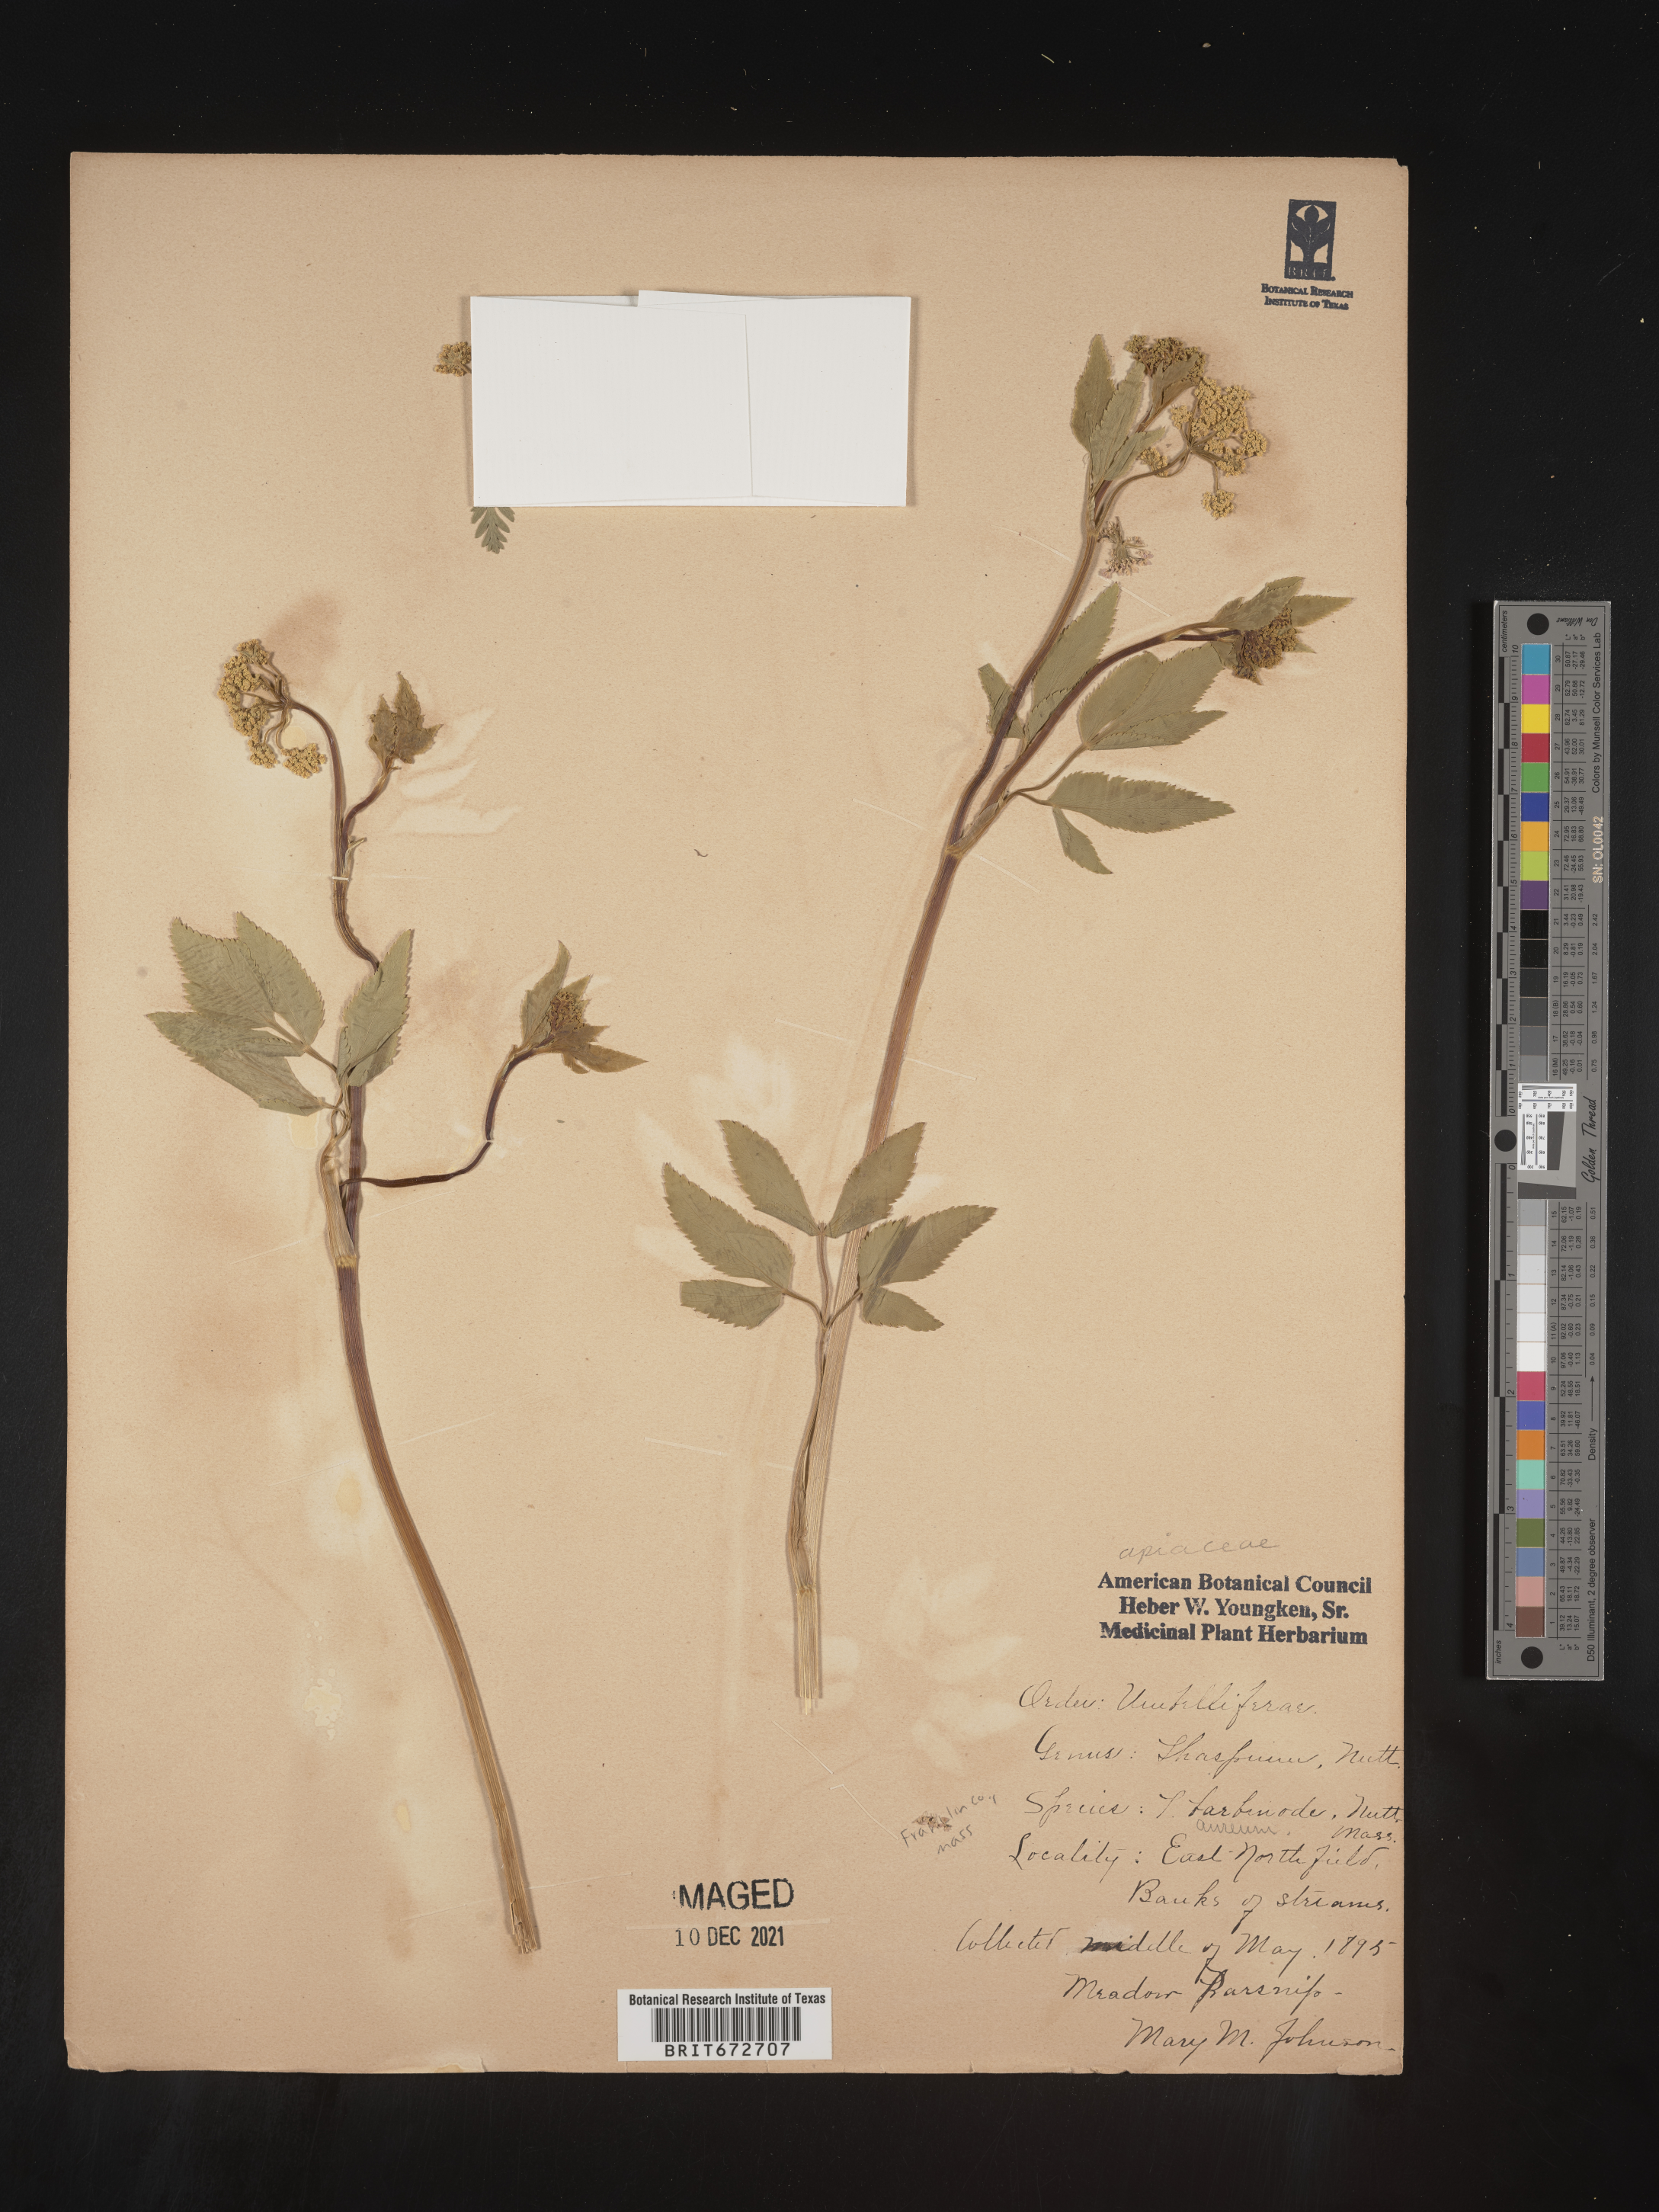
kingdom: Plantae
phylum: Tracheophyta
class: Magnoliopsida
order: Apiales
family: Apiaceae
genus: Thaspium
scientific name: Thaspium
